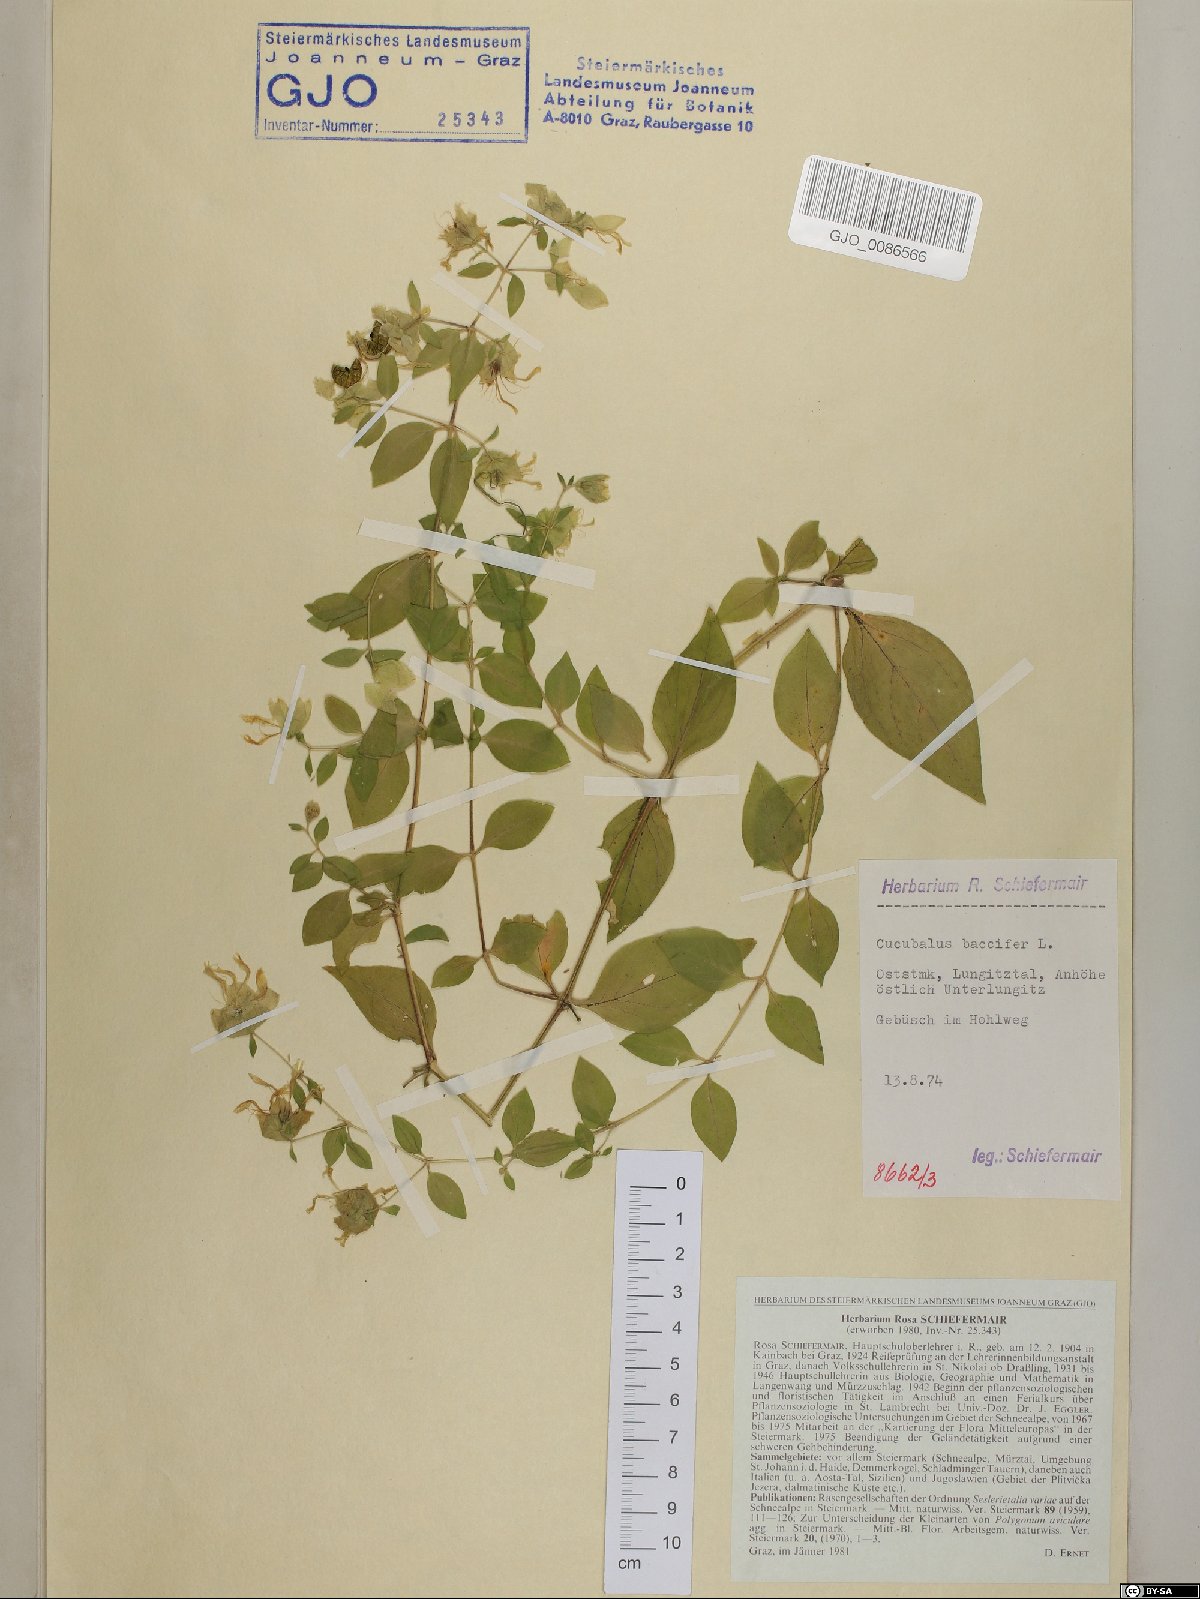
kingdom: Plantae
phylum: Tracheophyta
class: Magnoliopsida
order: Caryophyllales
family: Caryophyllaceae
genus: Silene
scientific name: Silene baccifera
